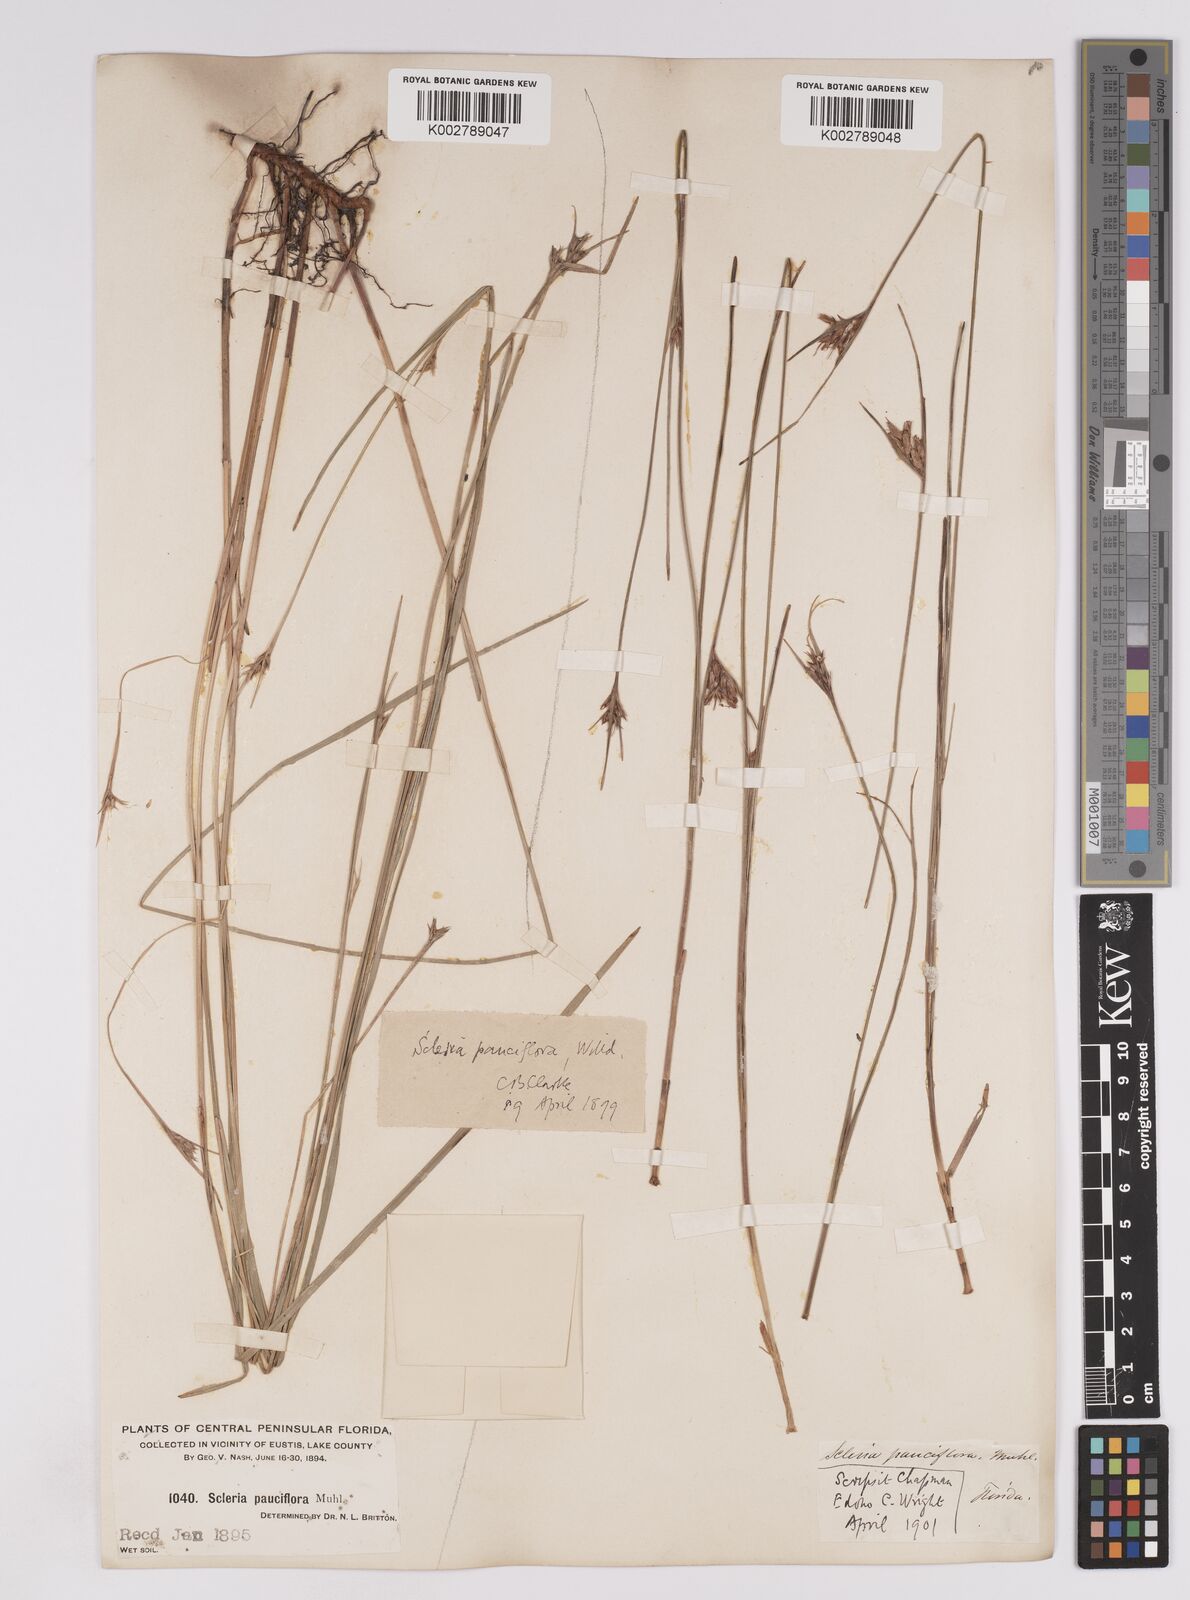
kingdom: Plantae
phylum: Tracheophyta
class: Liliopsida
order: Poales
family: Cyperaceae
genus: Scleria
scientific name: Scleria pauciflora
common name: Few-flowered nutrush
